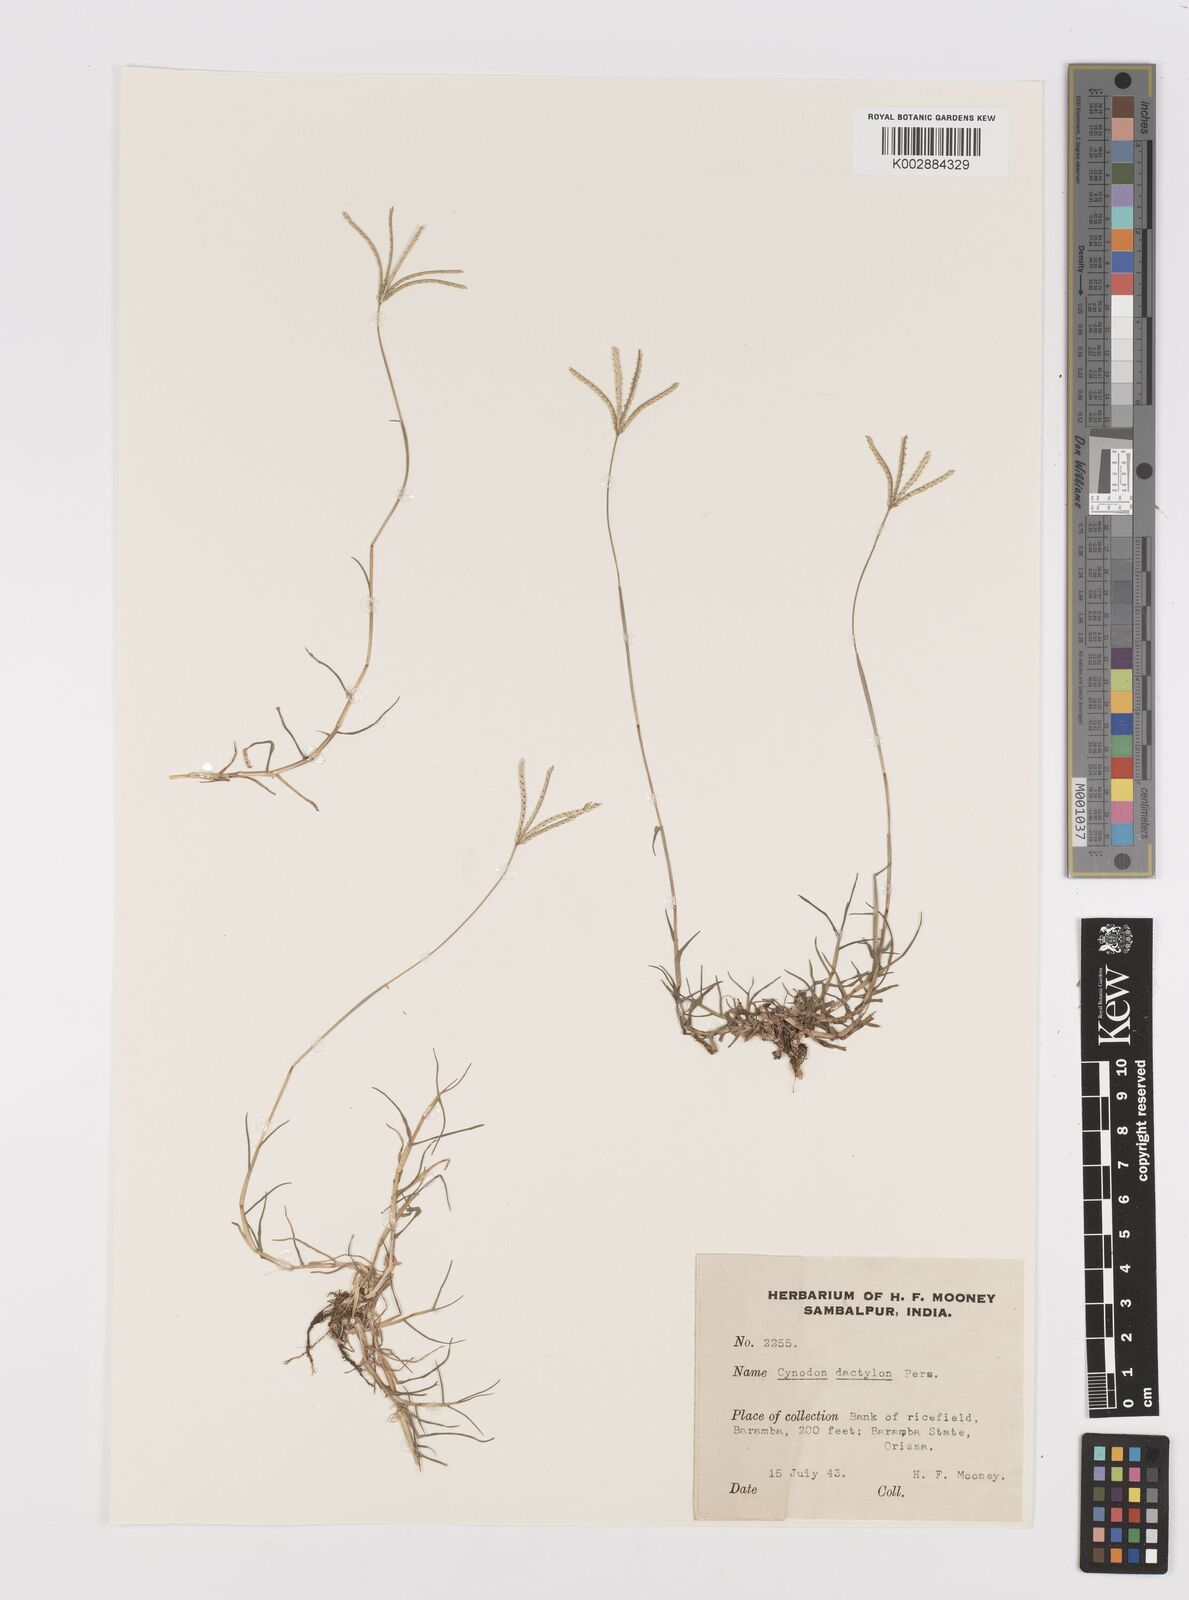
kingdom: Plantae
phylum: Tracheophyta
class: Liliopsida
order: Poales
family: Poaceae
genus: Cynodon
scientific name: Cynodon dactylon
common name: Bermuda grass
